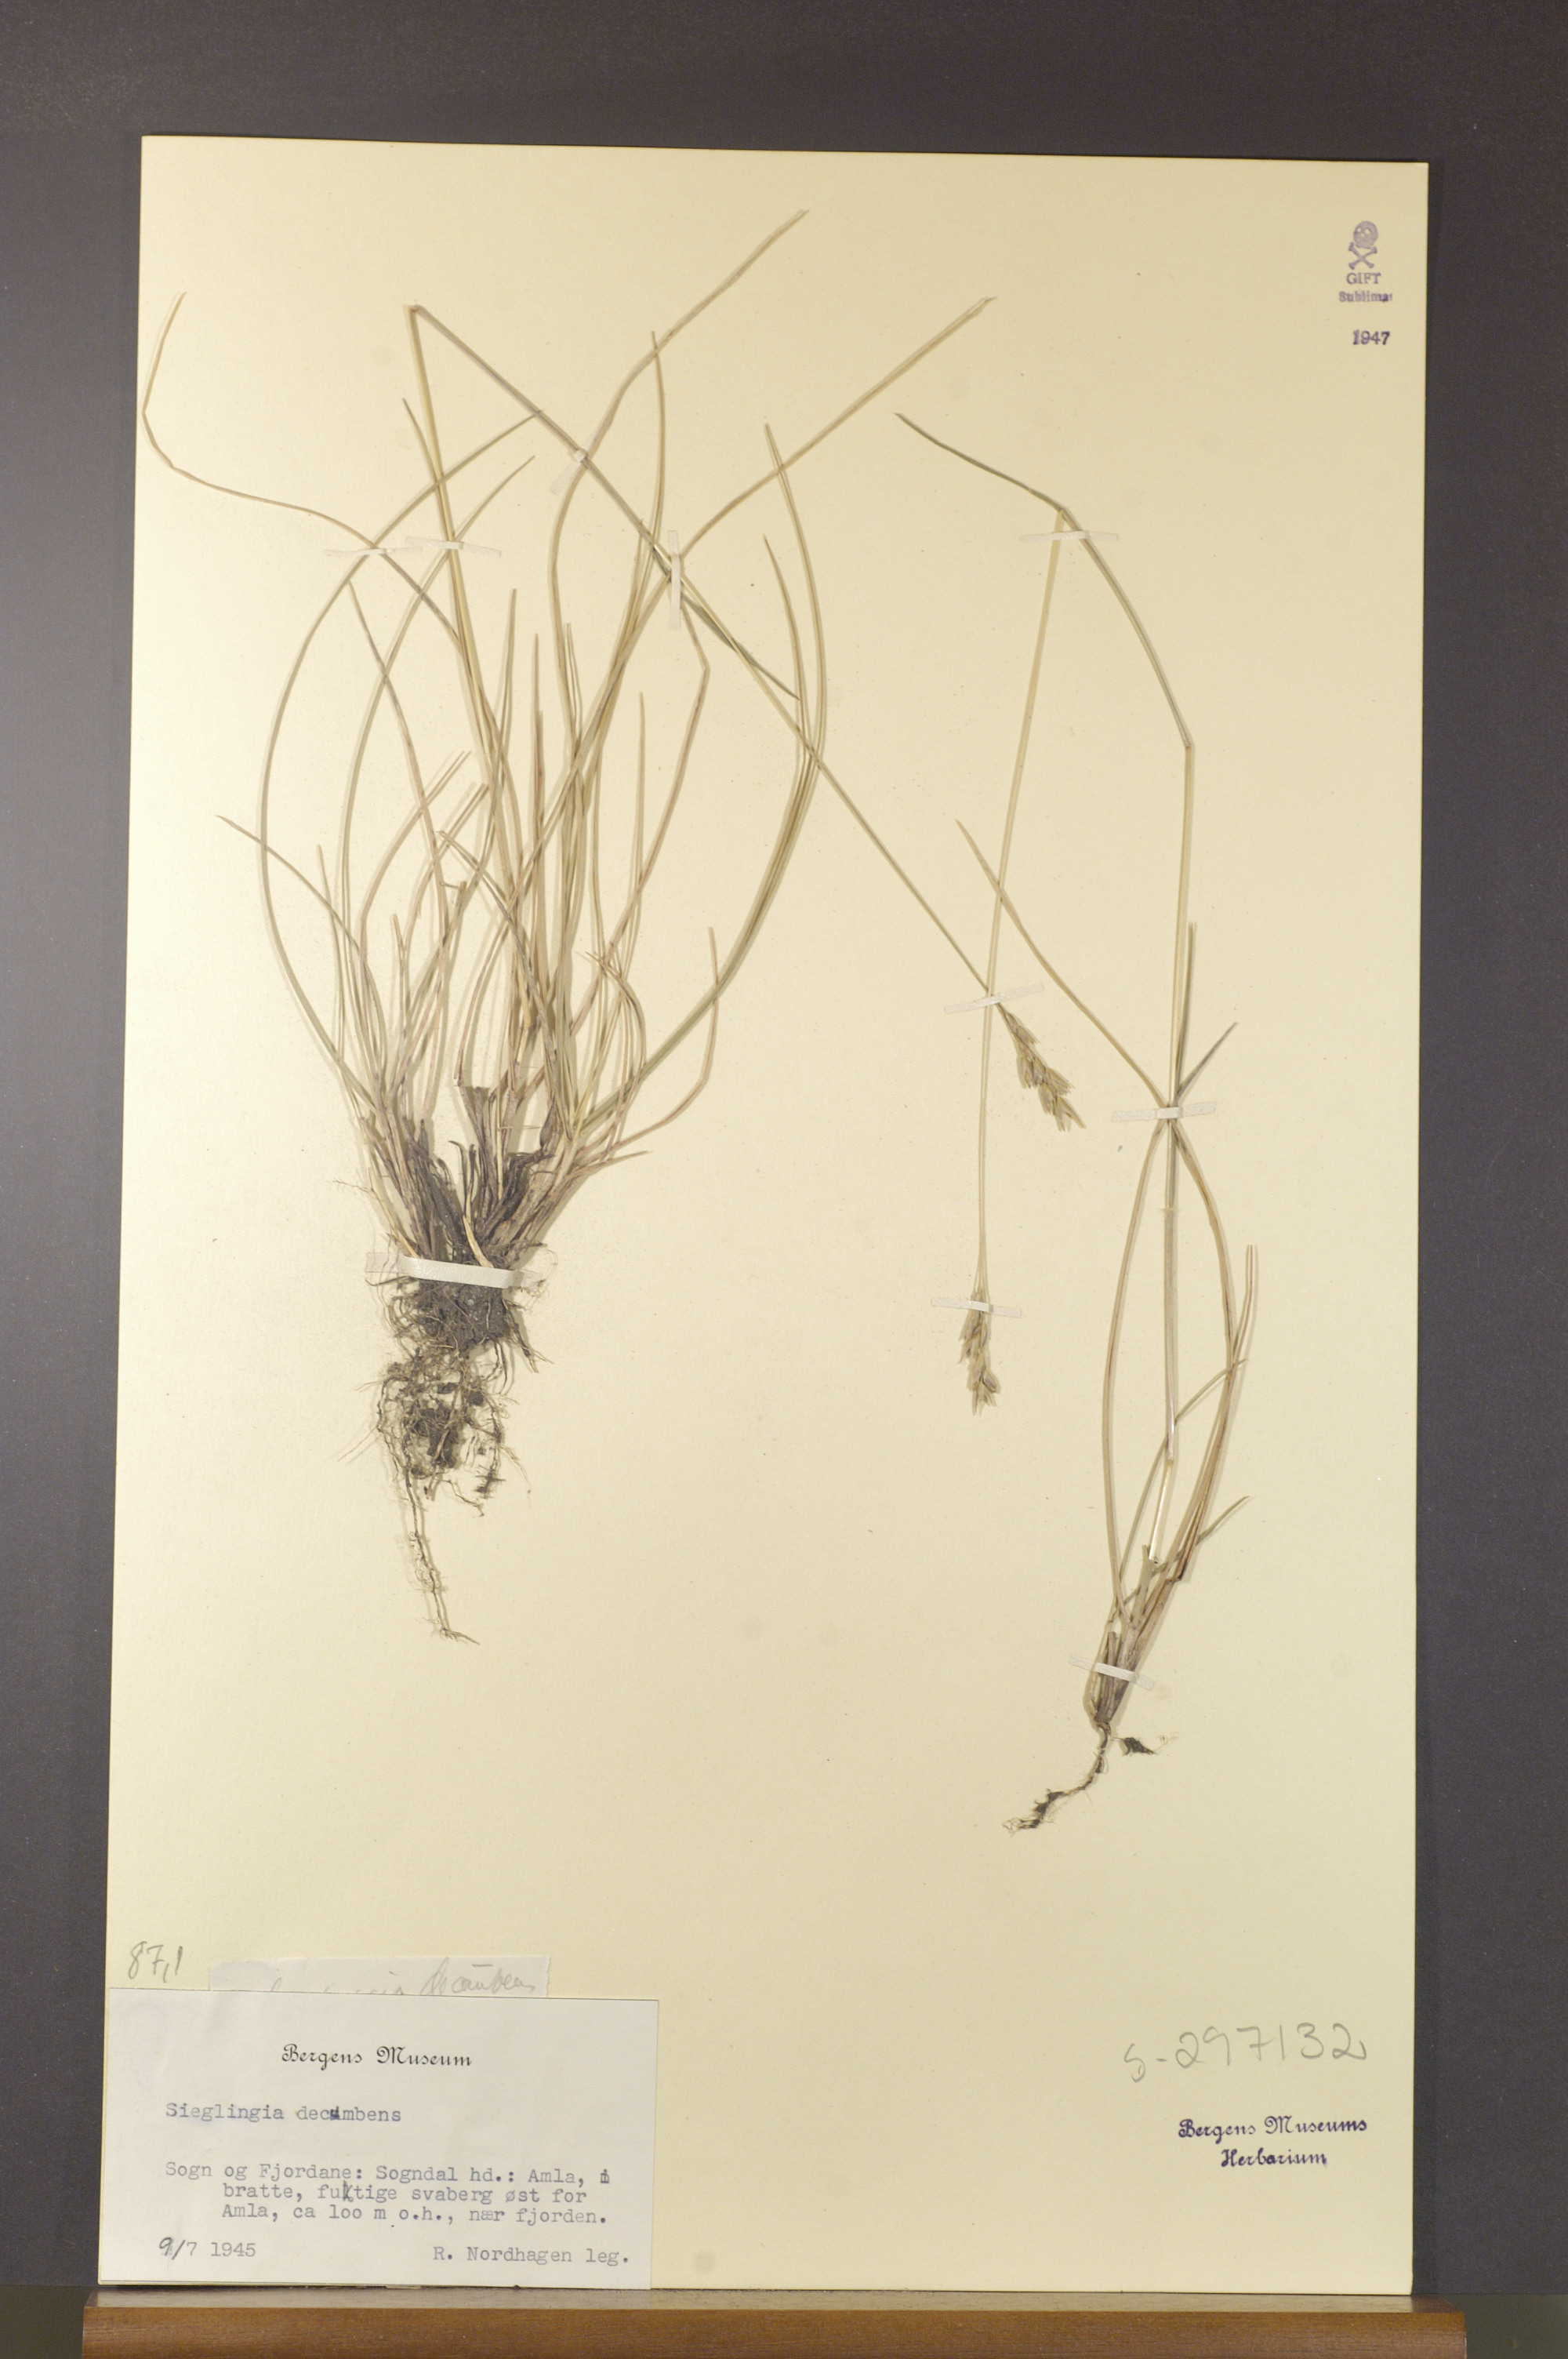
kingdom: Plantae
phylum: Tracheophyta
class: Liliopsida
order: Poales
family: Poaceae
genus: Danthonia
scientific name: Danthonia decumbens
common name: Common heathgrass
